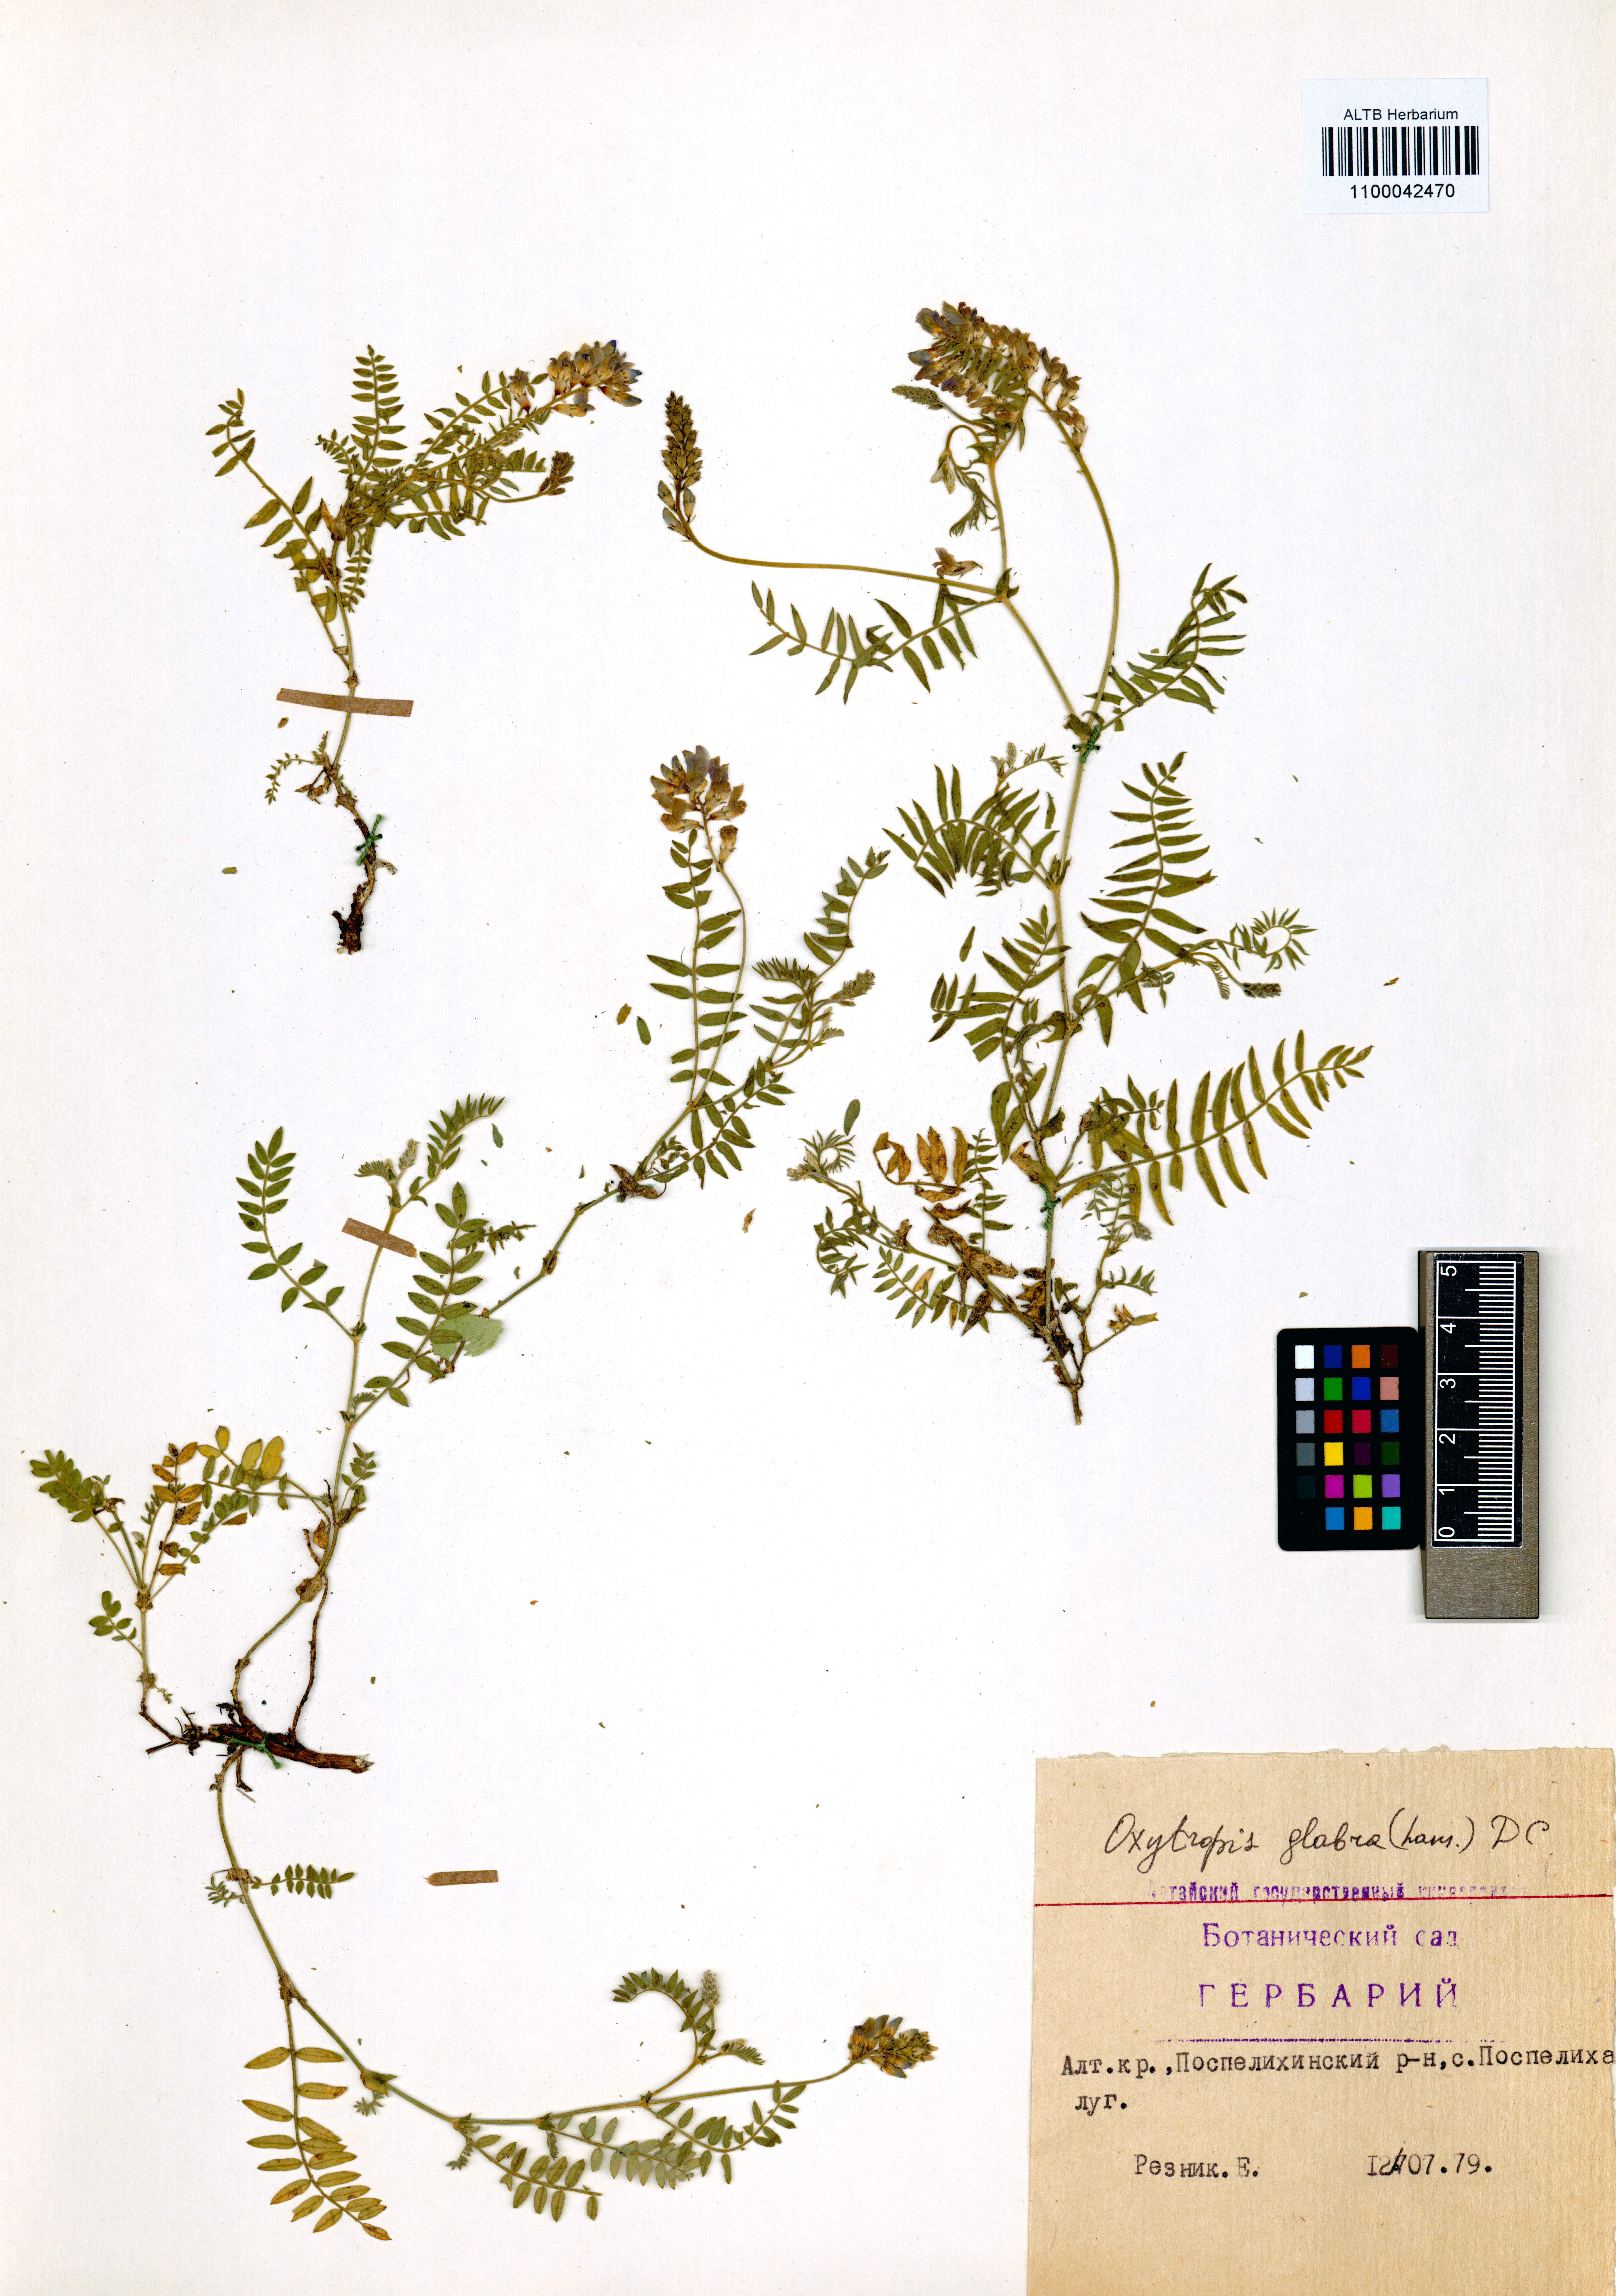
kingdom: Plantae
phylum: Tracheophyta
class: Magnoliopsida
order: Fabales
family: Fabaceae
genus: Oxytropis
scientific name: Oxytropis glabra
